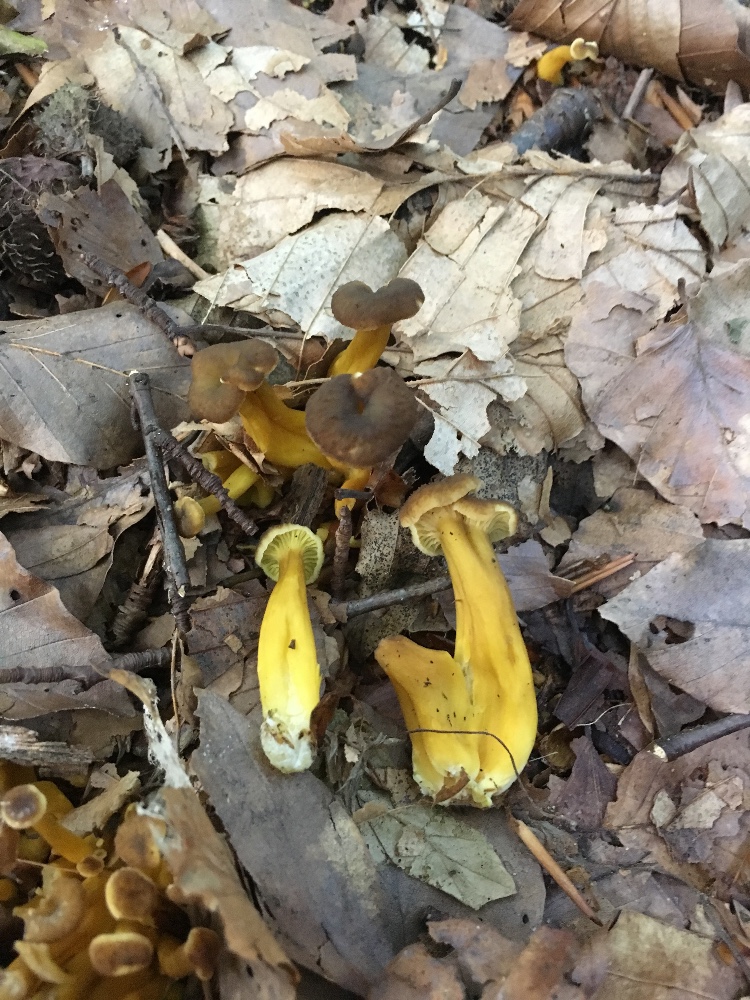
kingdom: Fungi
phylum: Basidiomycota
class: Agaricomycetes
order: Cantharellales
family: Hydnaceae
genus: Craterellus
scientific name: Craterellus tubaeformis
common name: tragt-kantarel
